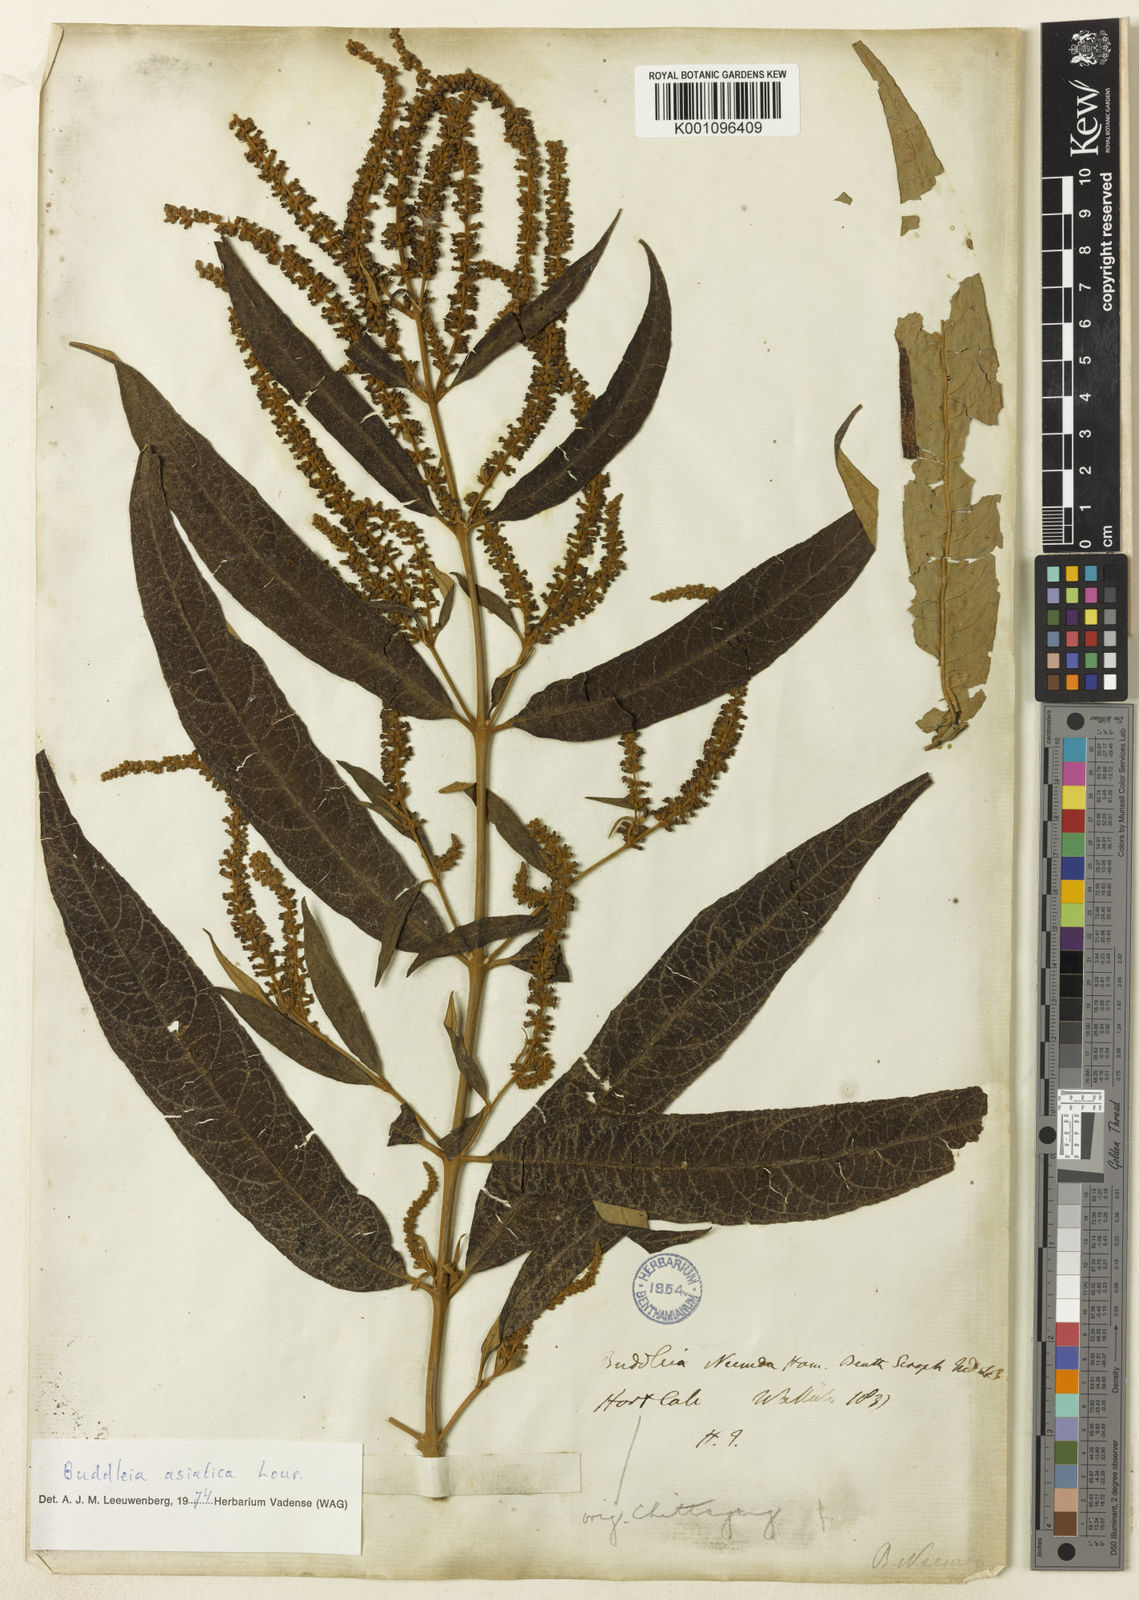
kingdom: Plantae
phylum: Tracheophyta
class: Magnoliopsida
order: Lamiales
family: Scrophulariaceae
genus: Buddleja
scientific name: Buddleja asiatica
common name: Dog tail
